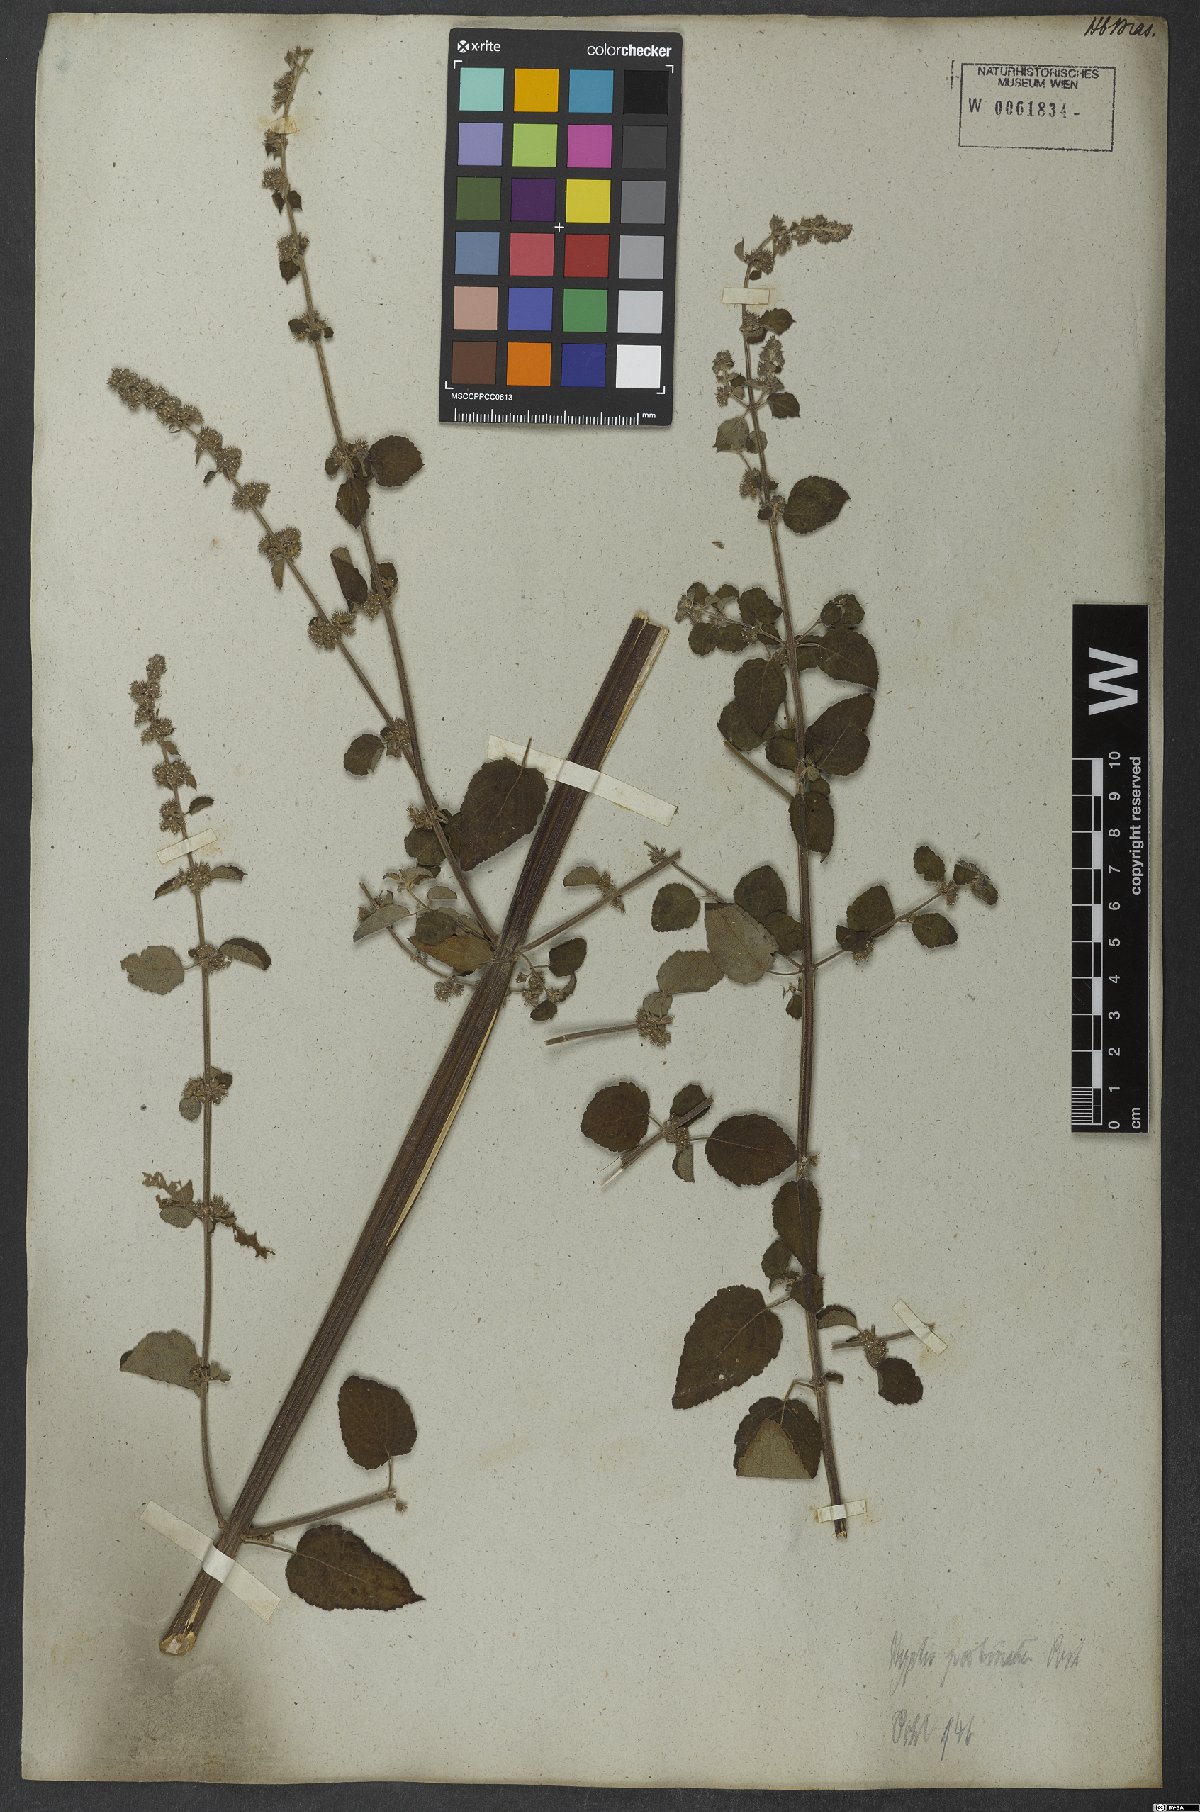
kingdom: Plantae
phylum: Tracheophyta
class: Magnoliopsida
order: Lamiales
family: Lamiaceae
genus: Mesosphaerum
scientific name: Mesosphaerum pectinatum
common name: Comb hyptis
